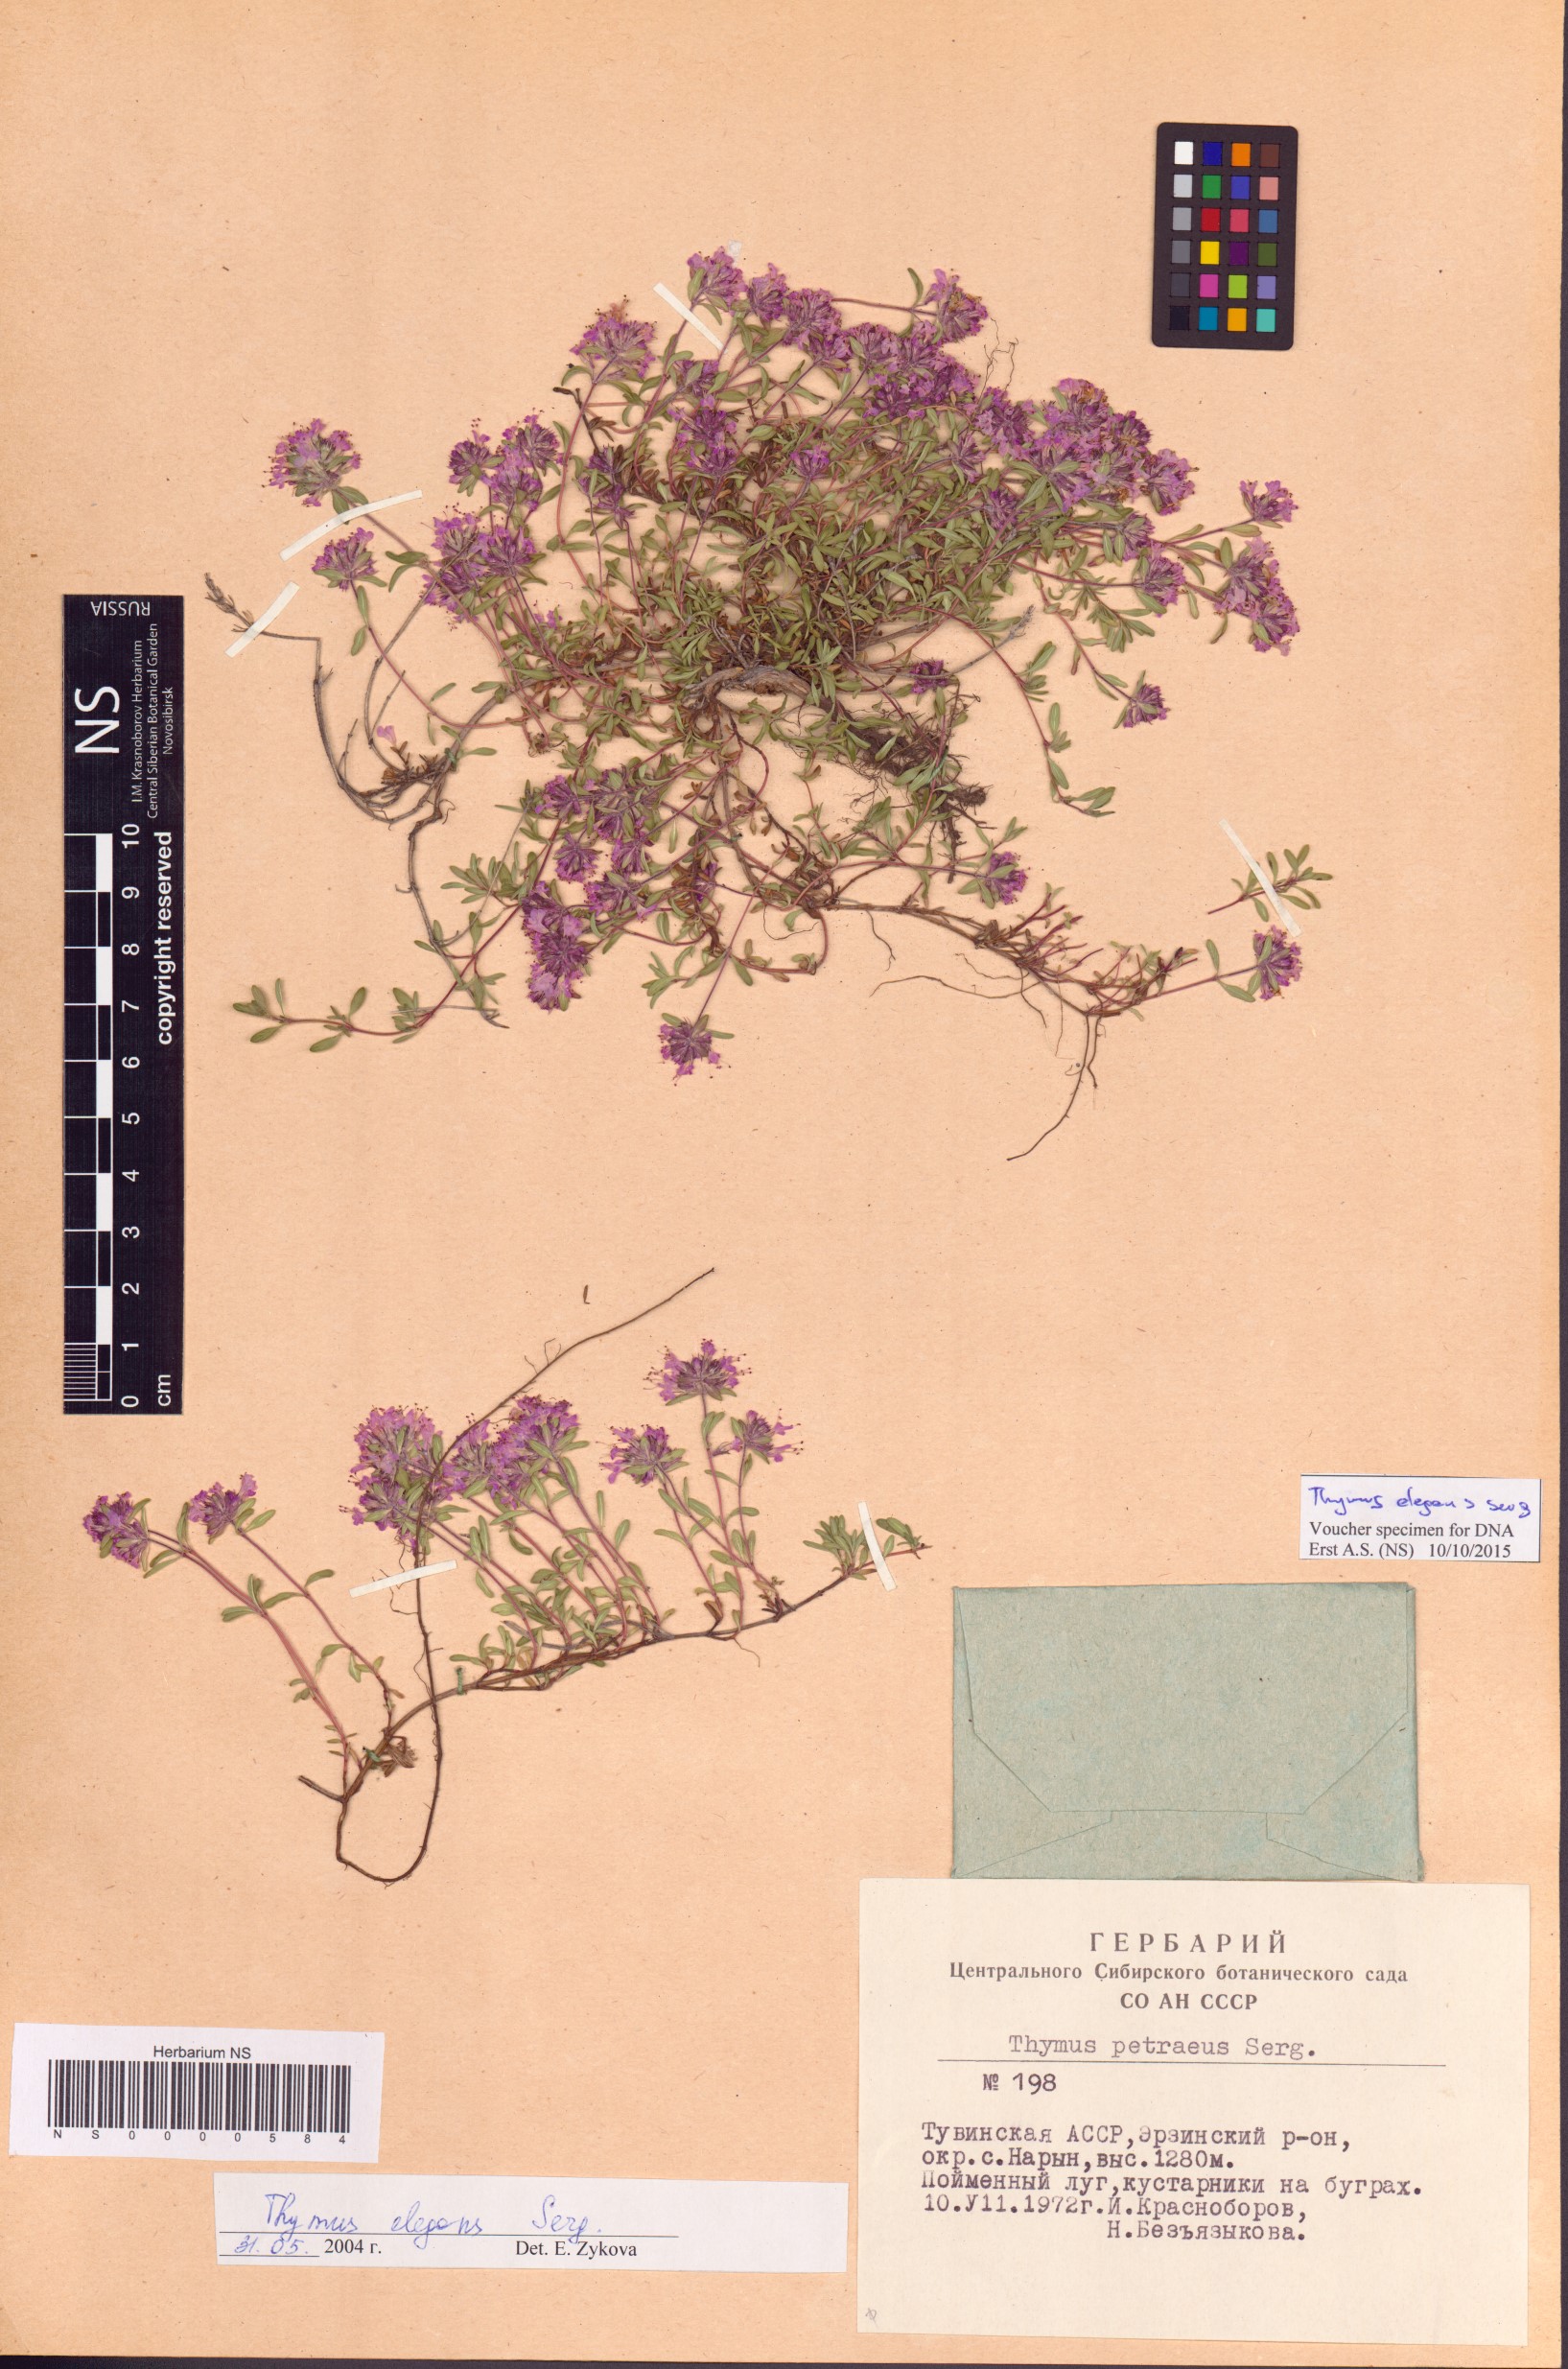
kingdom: Plantae
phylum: Tracheophyta
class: Magnoliopsida
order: Lamiales
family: Lamiaceae
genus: Thymus
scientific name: Thymus elegans
